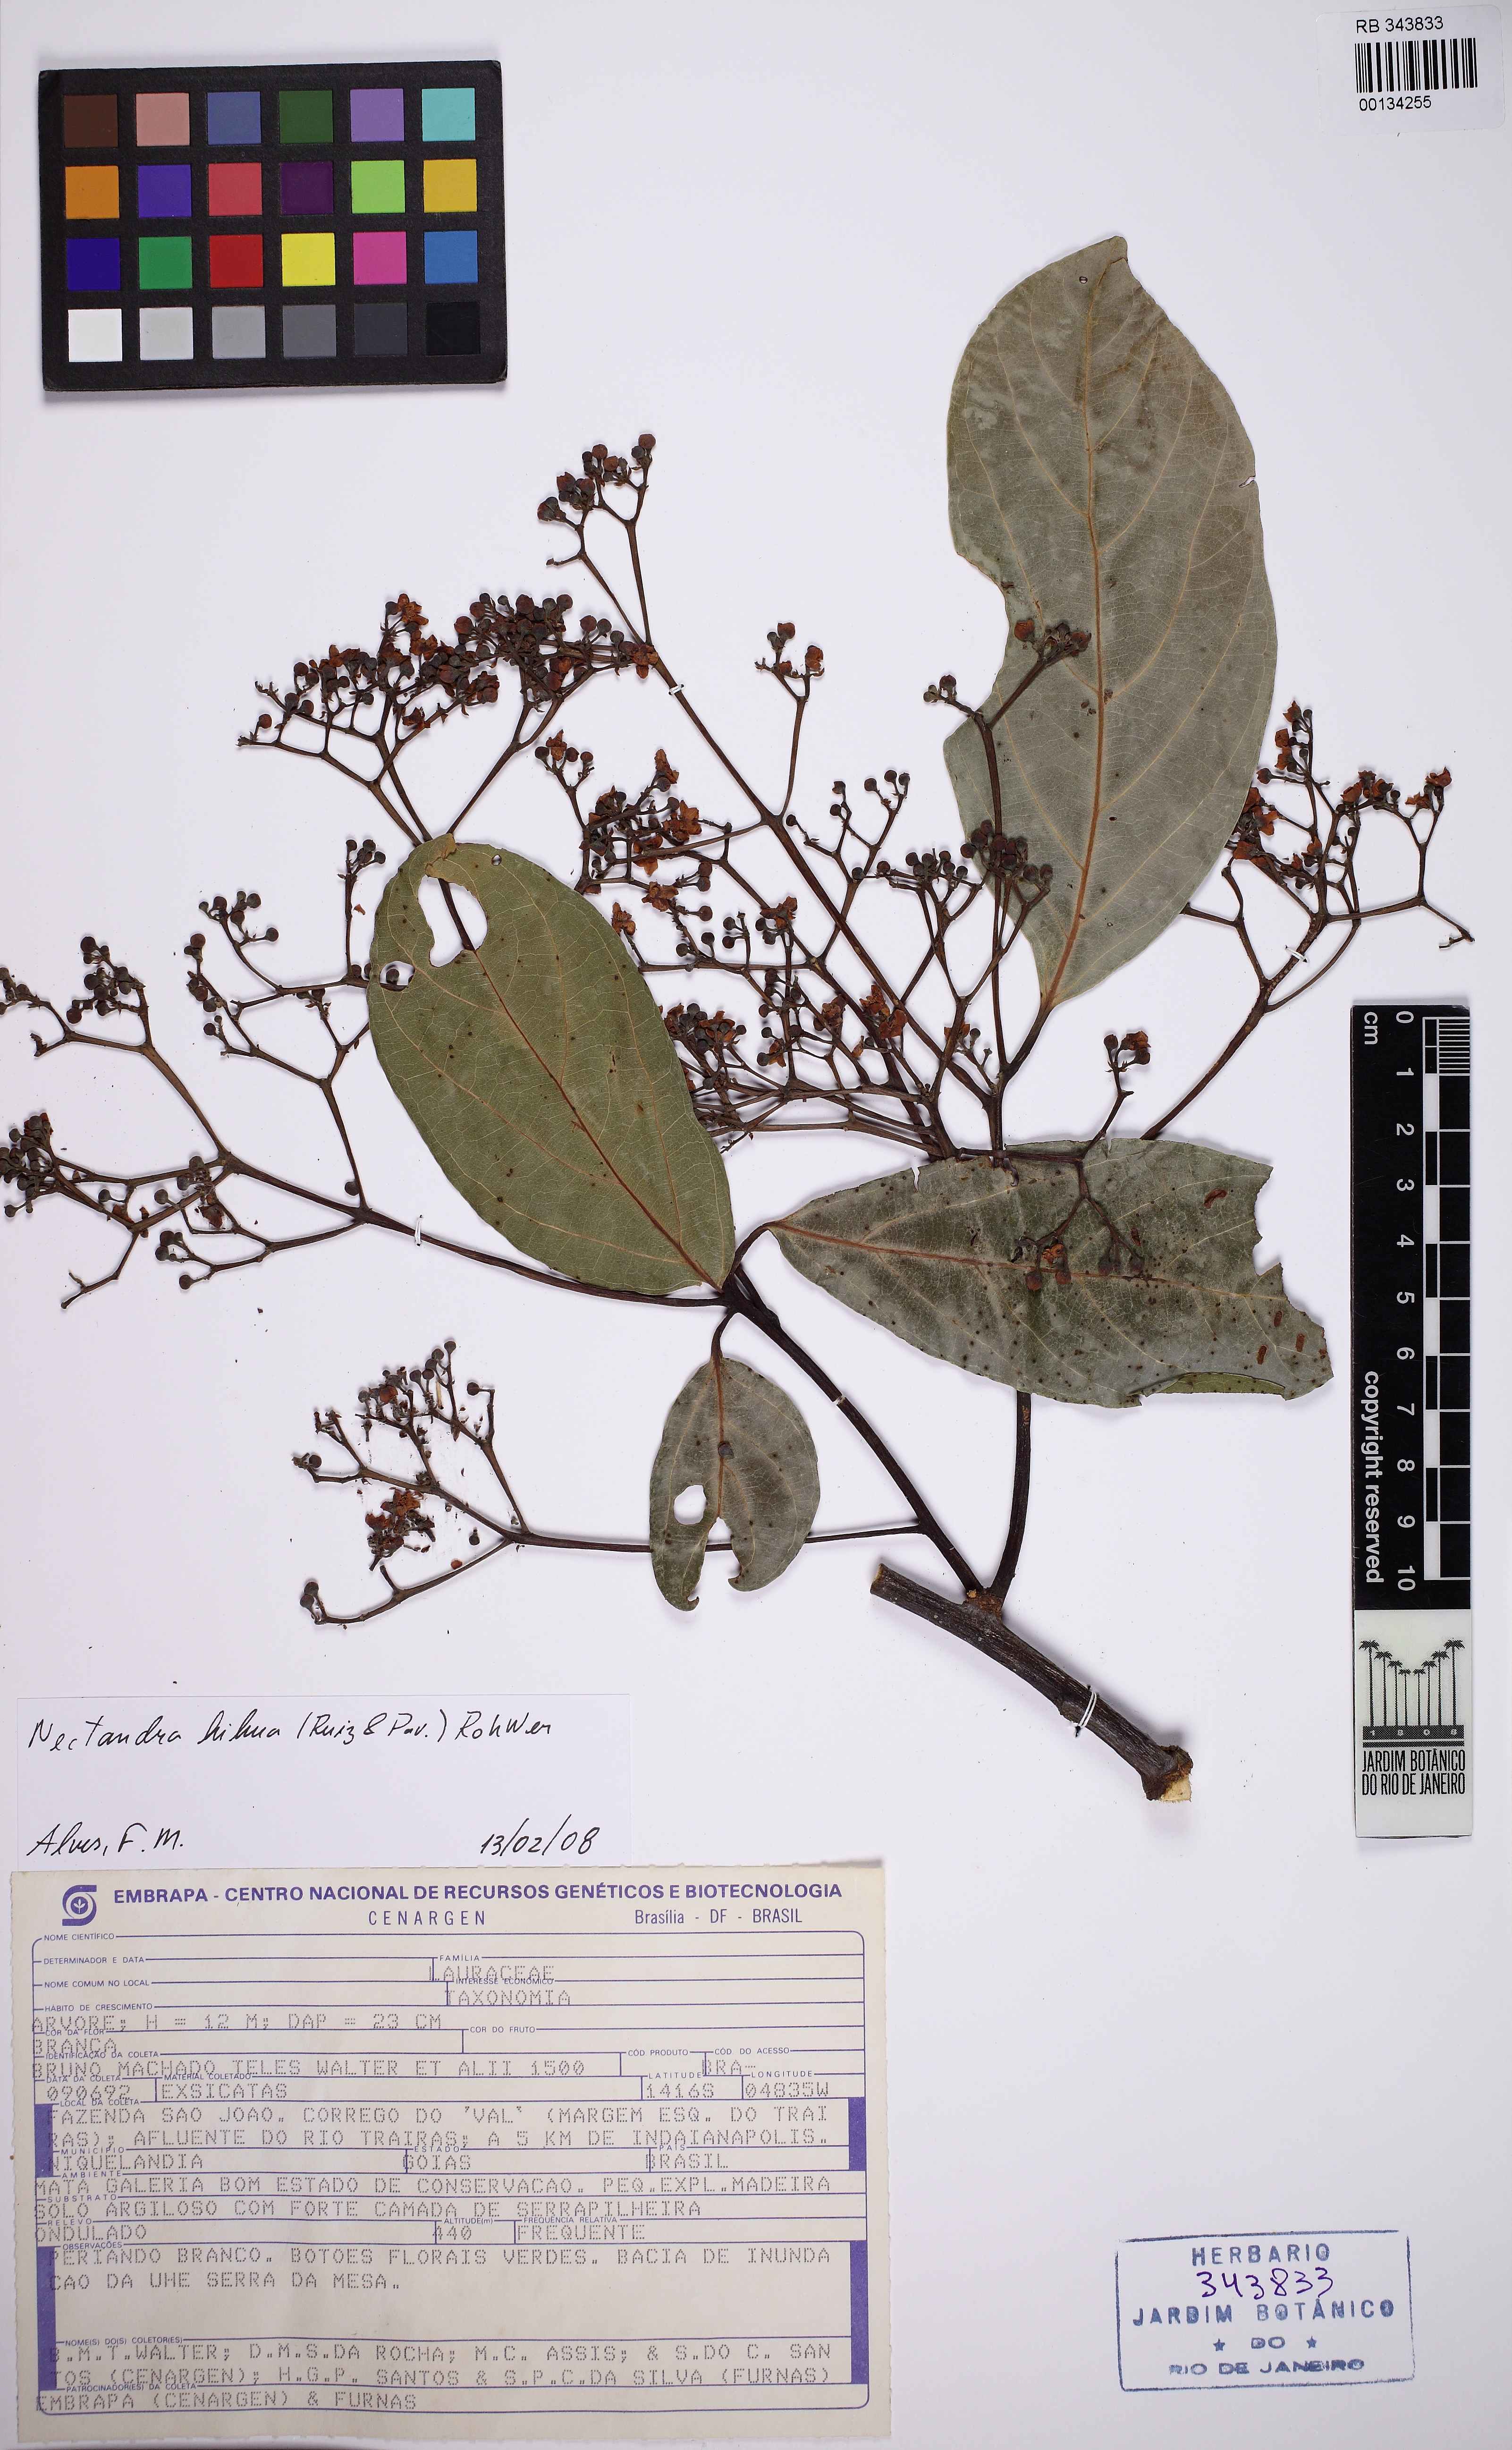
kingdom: Plantae
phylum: Tracheophyta
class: Magnoliopsida
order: Laurales
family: Lauraceae
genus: Nectandra
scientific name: Nectandra hihua
